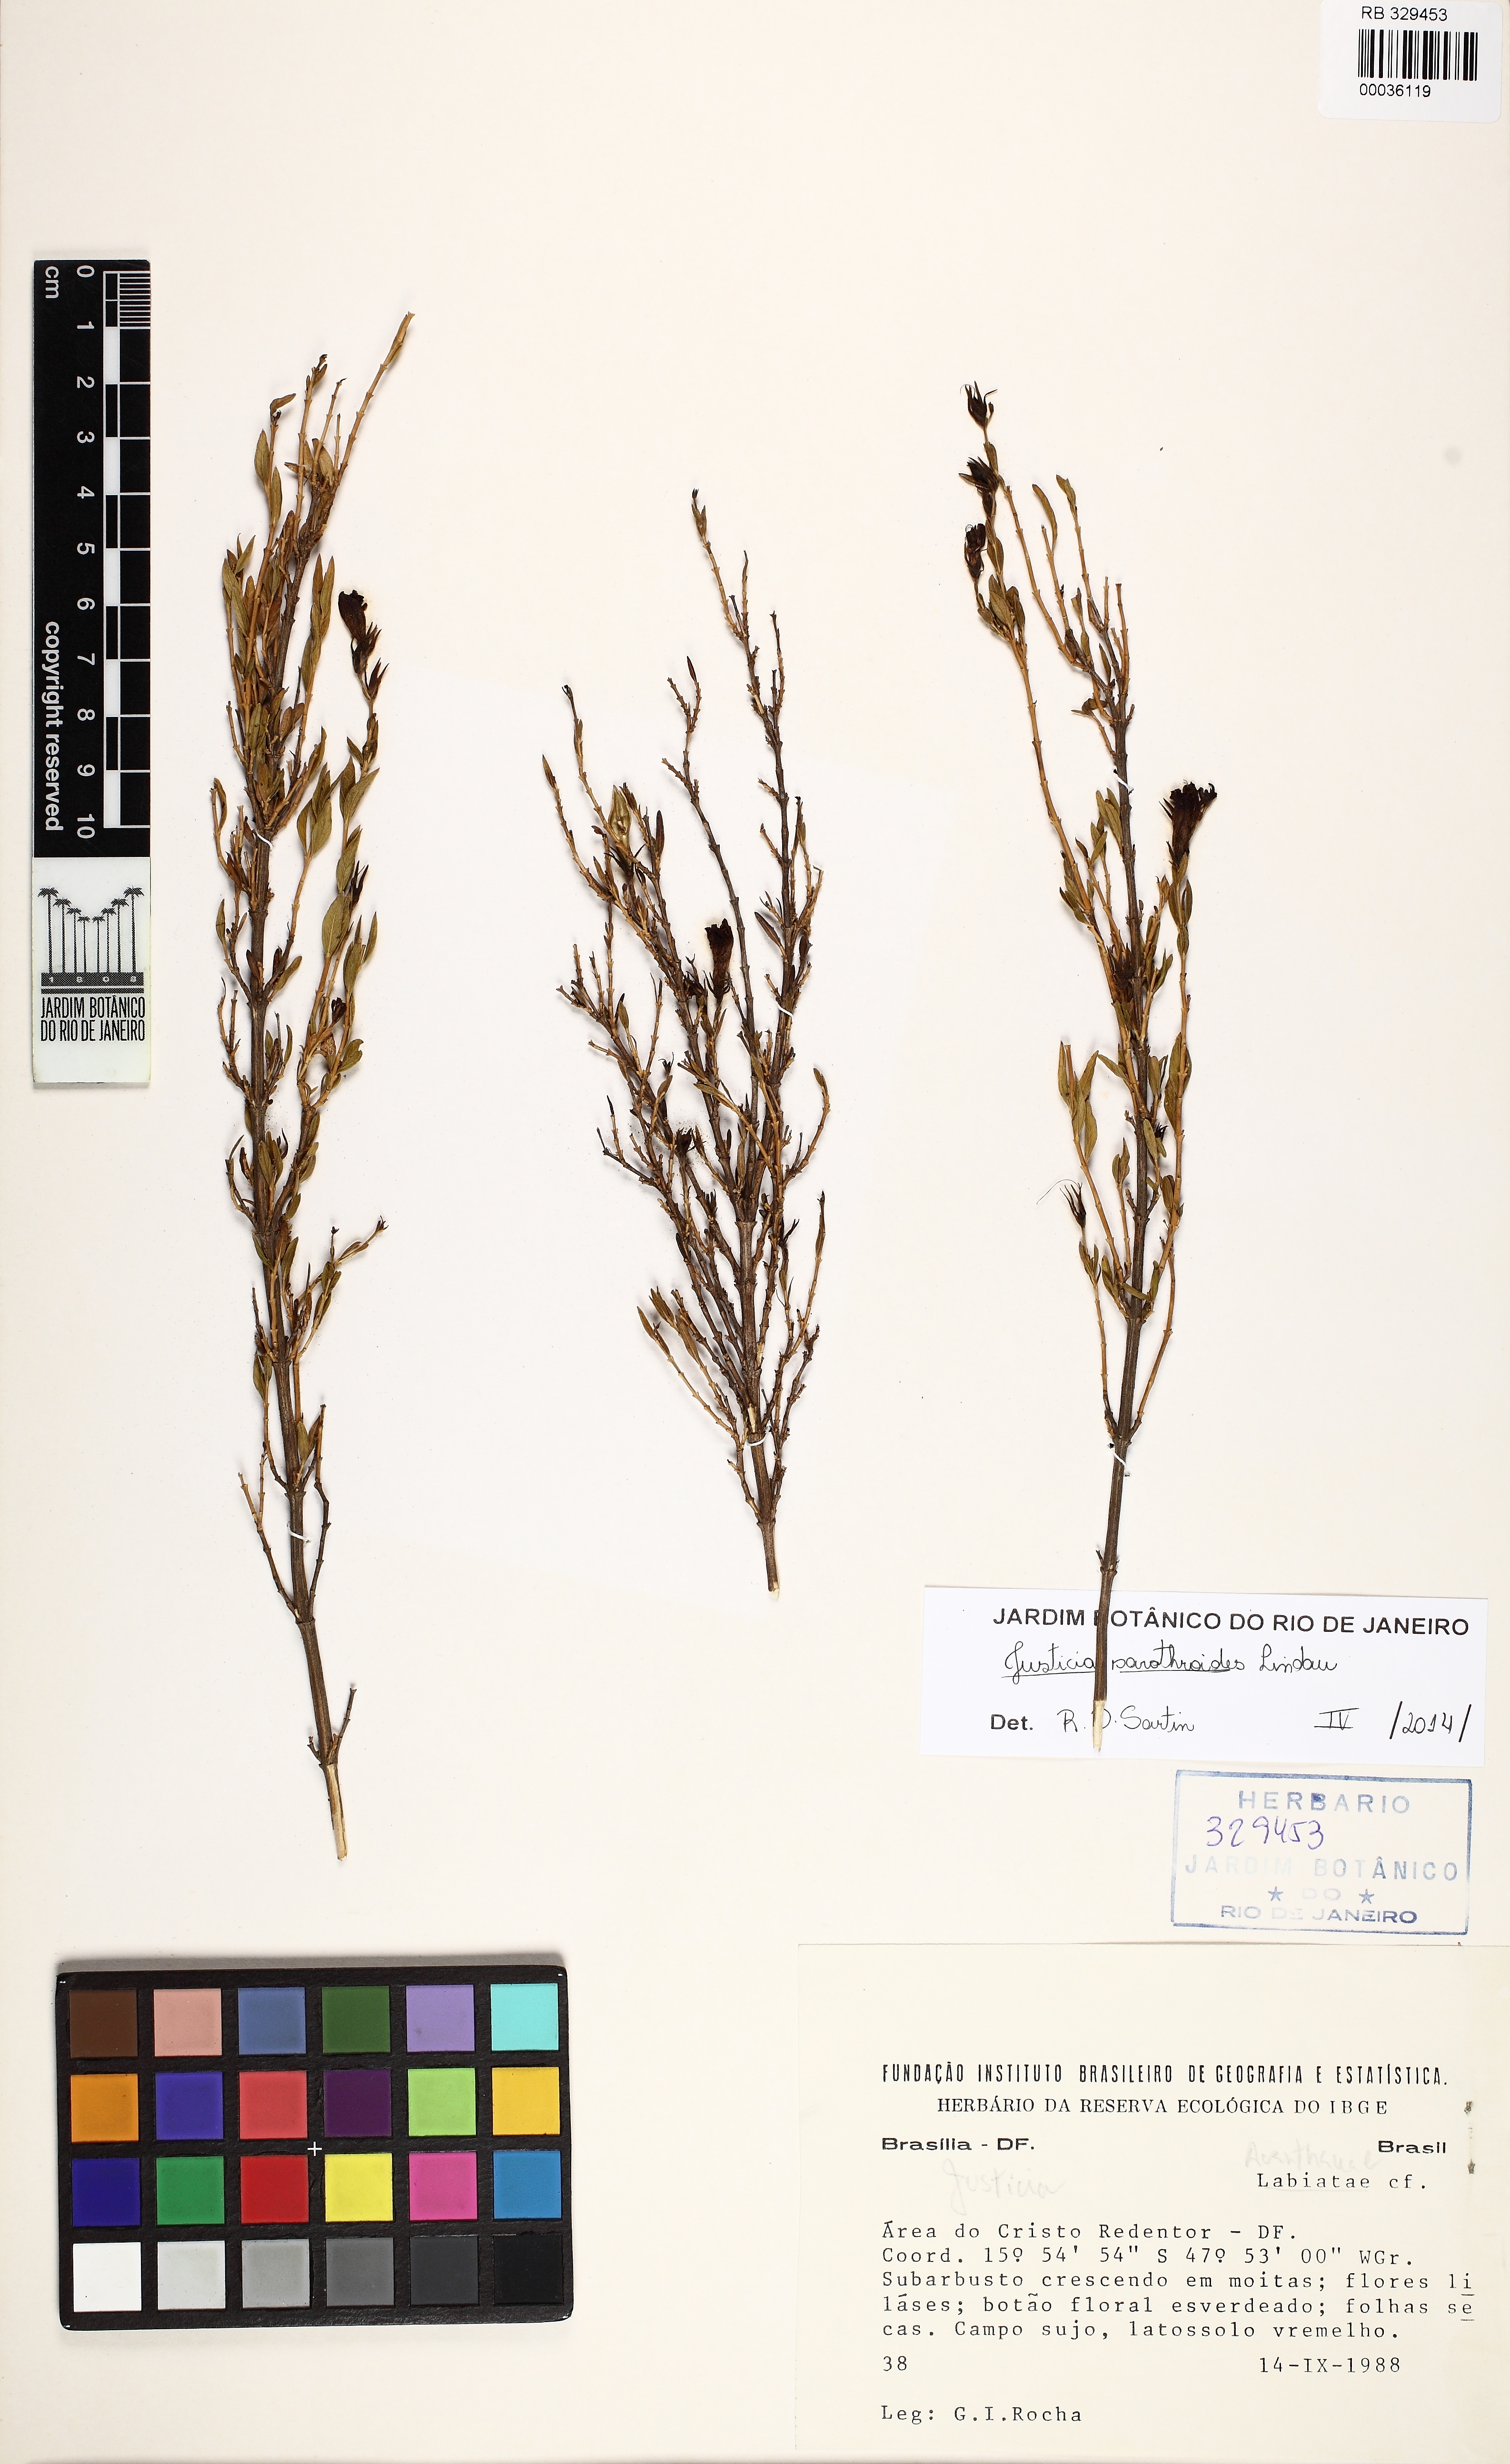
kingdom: Plantae
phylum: Tracheophyta
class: Magnoliopsida
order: Lamiales
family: Acanthaceae
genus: Justicia
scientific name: Justicia sarothroides
